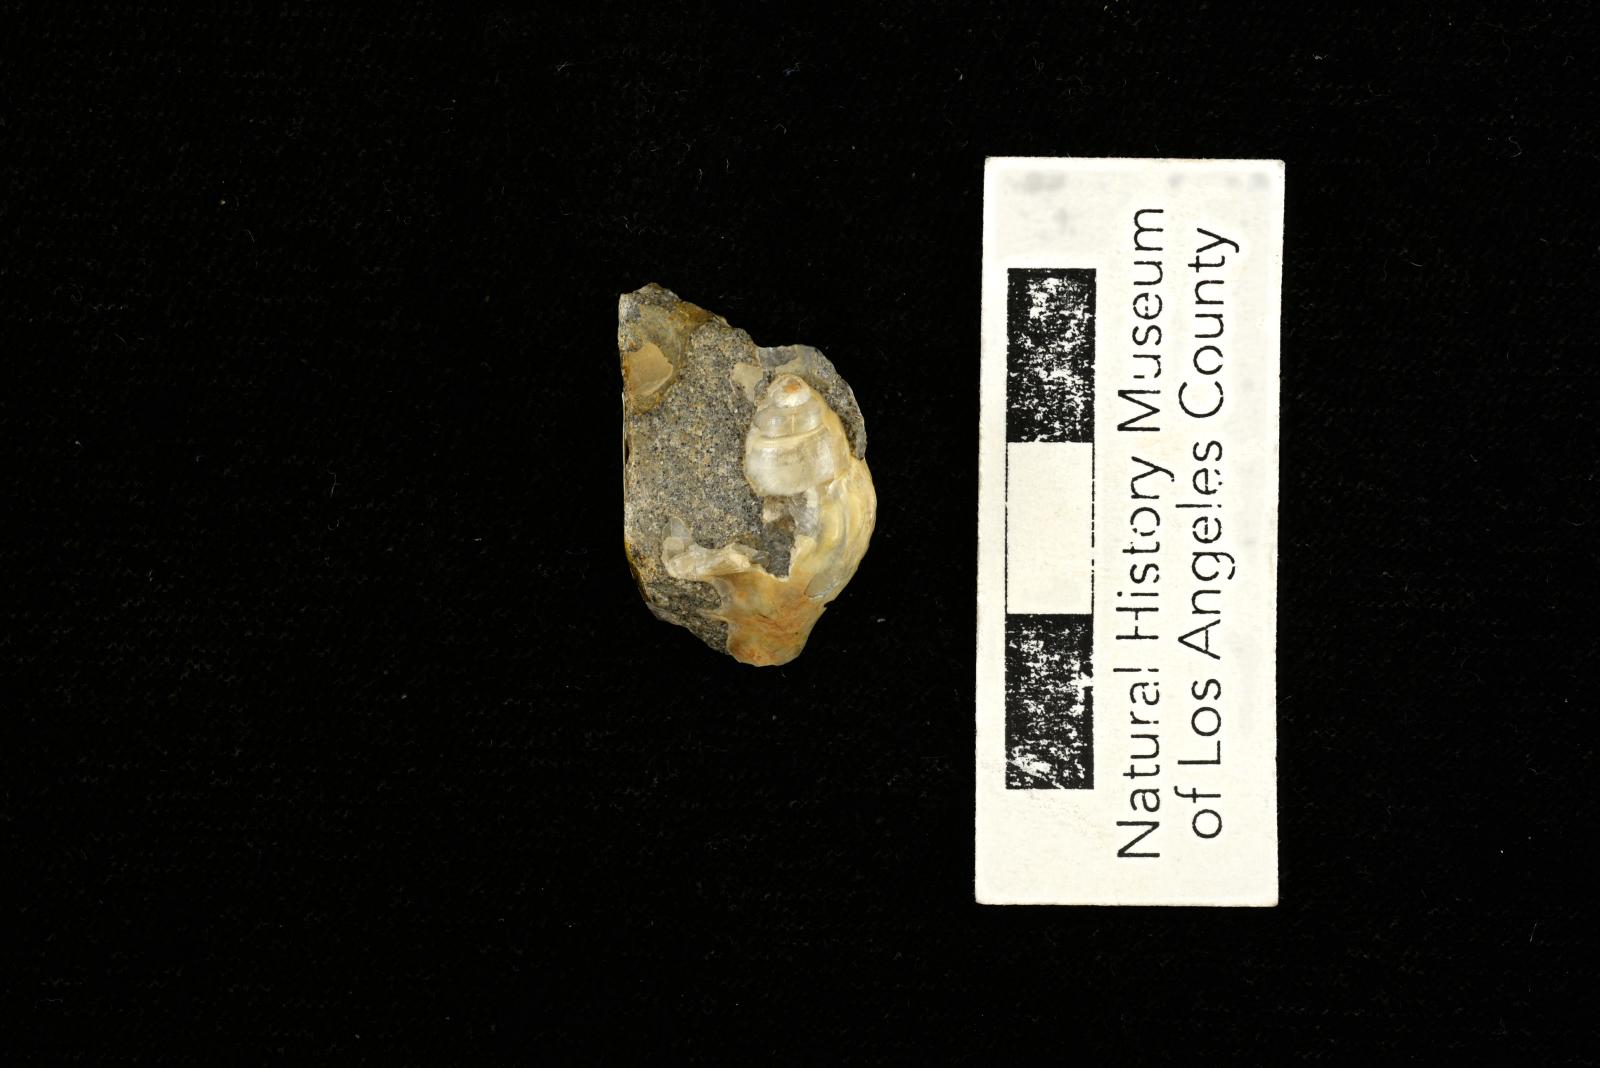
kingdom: Animalia
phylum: Mollusca
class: Gastropoda
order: Littorinimorpha
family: Aporrhaidae
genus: Pyktes
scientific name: Pyktes aspris
